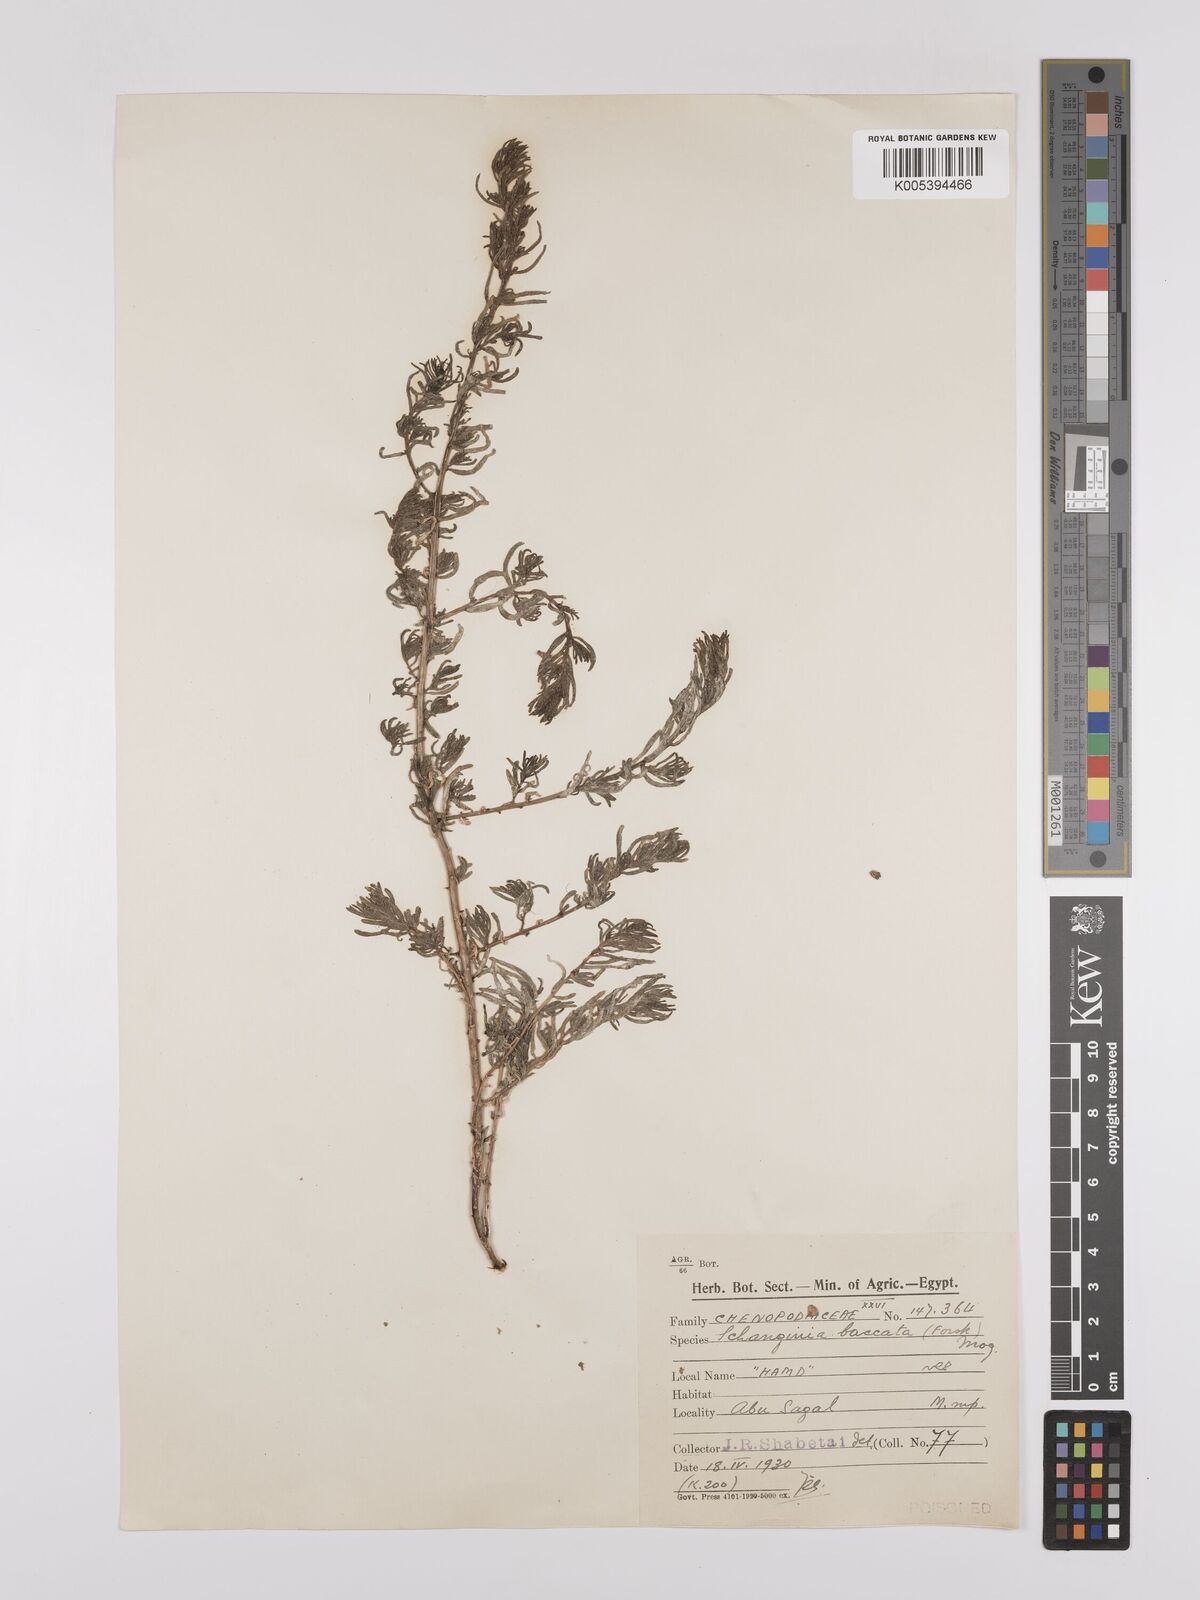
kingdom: Plantae
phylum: Tracheophyta
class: Magnoliopsida
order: Caryophyllales
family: Amaranthaceae
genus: Suaeda
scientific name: Suaeda aegyptiaca
